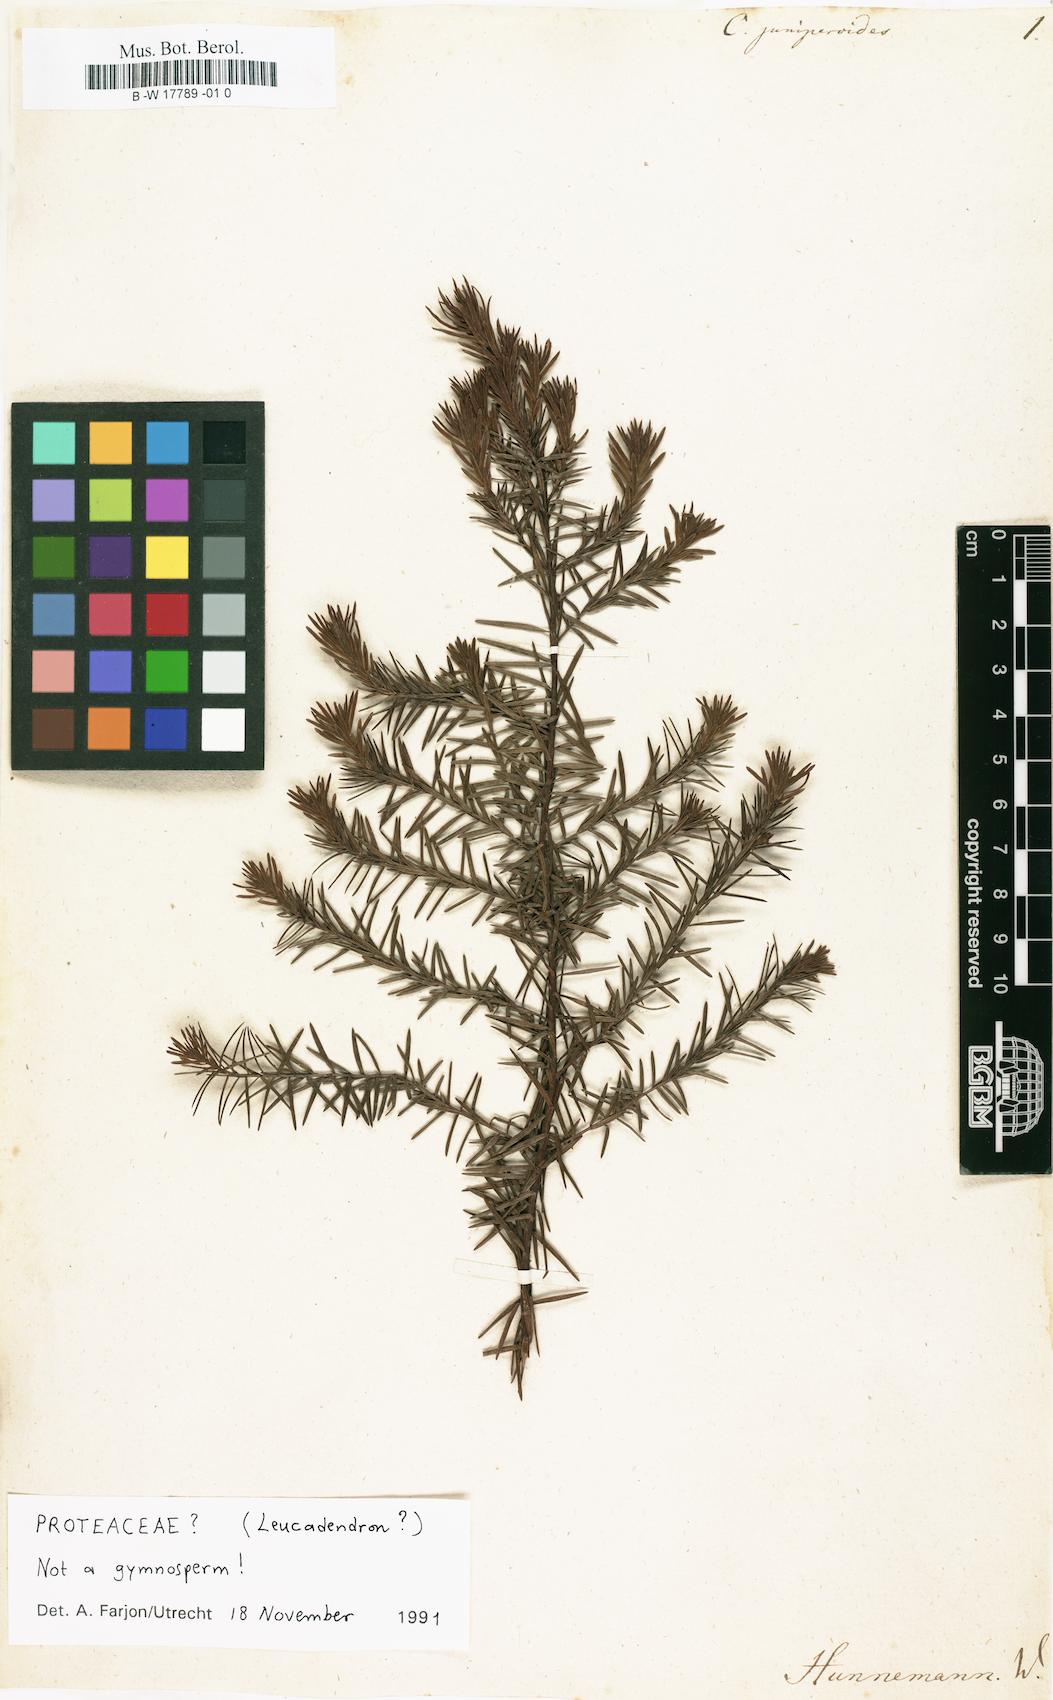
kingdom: Plantae
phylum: Tracheophyta
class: Pinopsida
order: Pinales
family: Cupressaceae
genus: Widdringtonia
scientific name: Widdringtonia nodiflora
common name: Cape cypress
